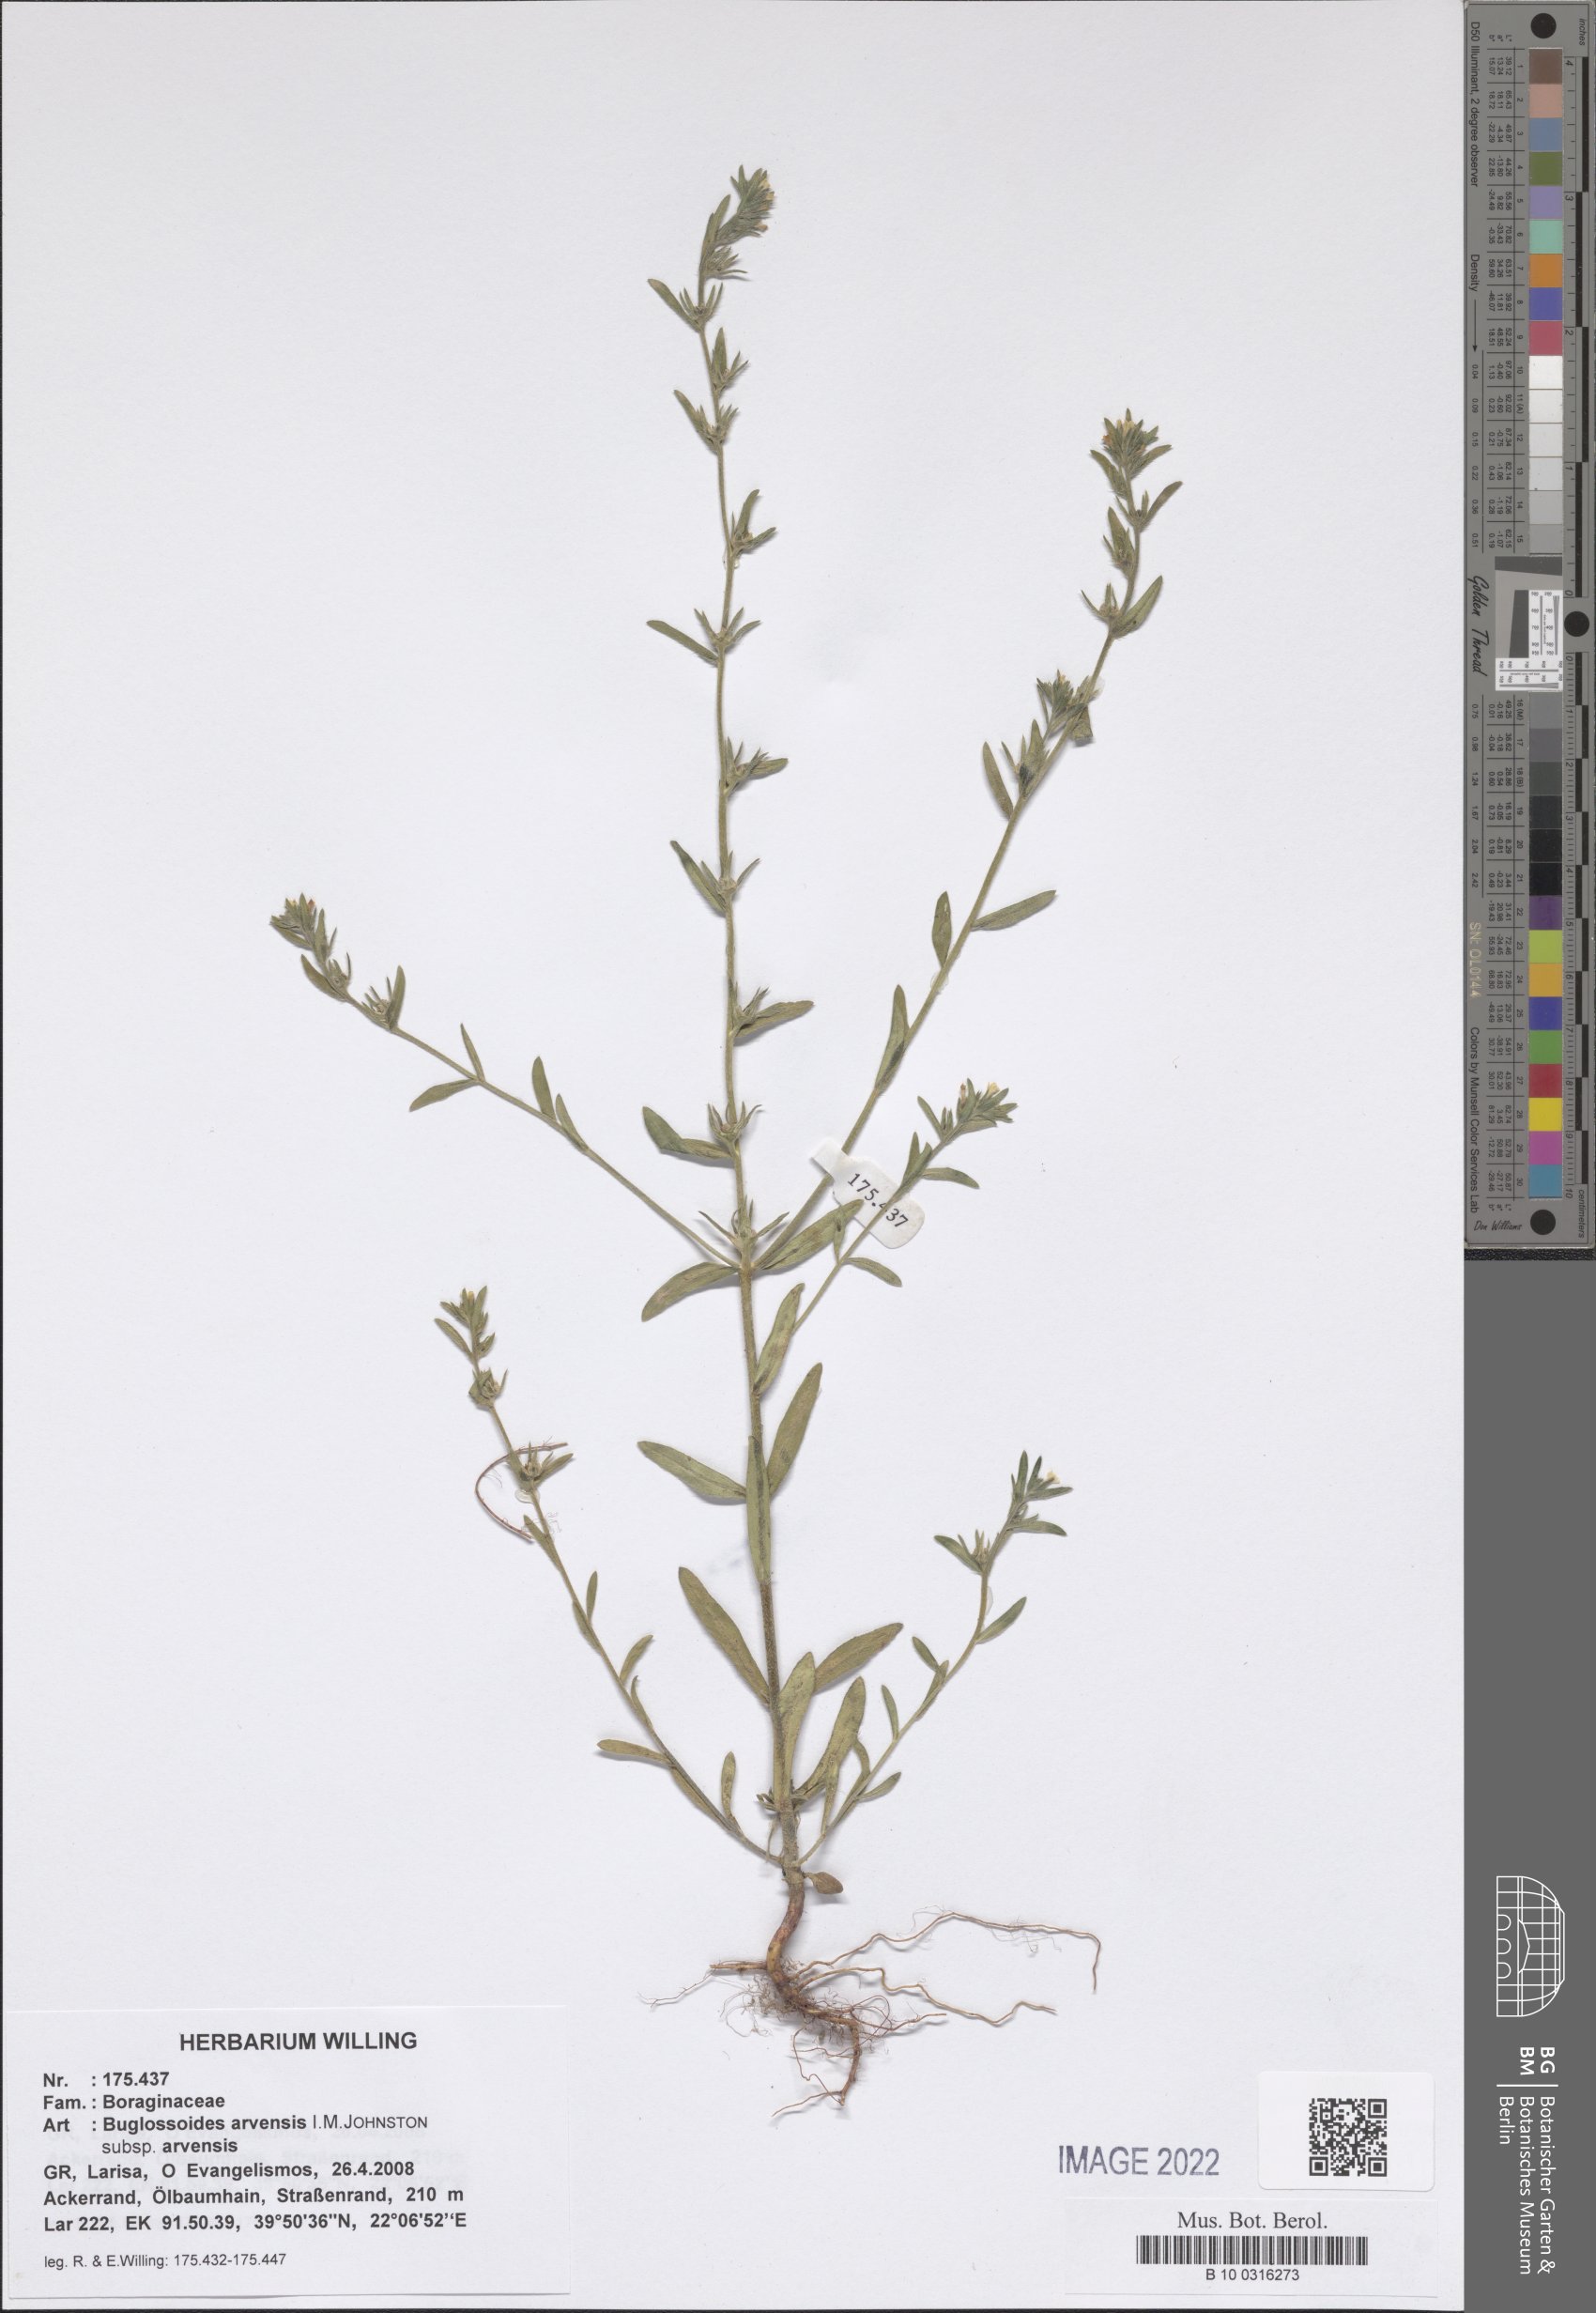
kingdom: Plantae
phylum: Tracheophyta
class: Magnoliopsida
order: Boraginales
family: Boraginaceae
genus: Buglossoides
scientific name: Buglossoides arvensis
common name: Corn gromwell
